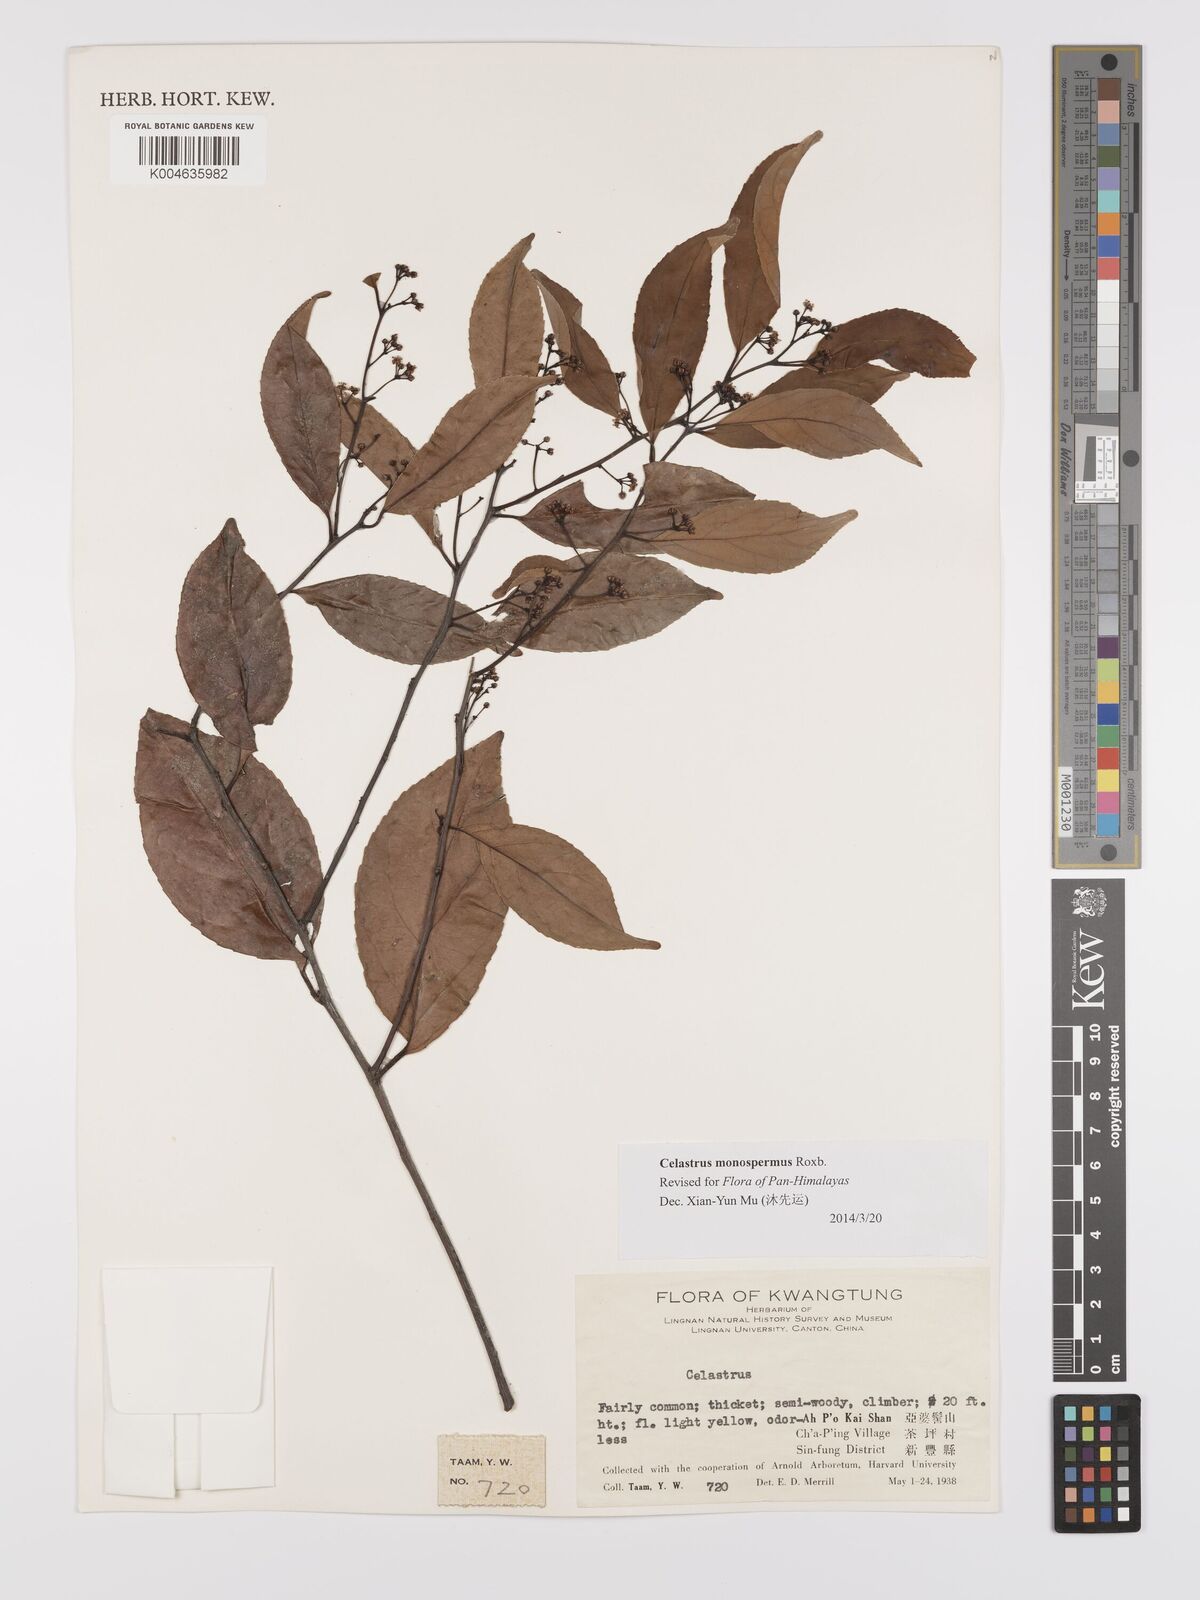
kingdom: Plantae
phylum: Tracheophyta
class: Magnoliopsida
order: Celastrales
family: Celastraceae
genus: Celastrus
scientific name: Celastrus monospermus
